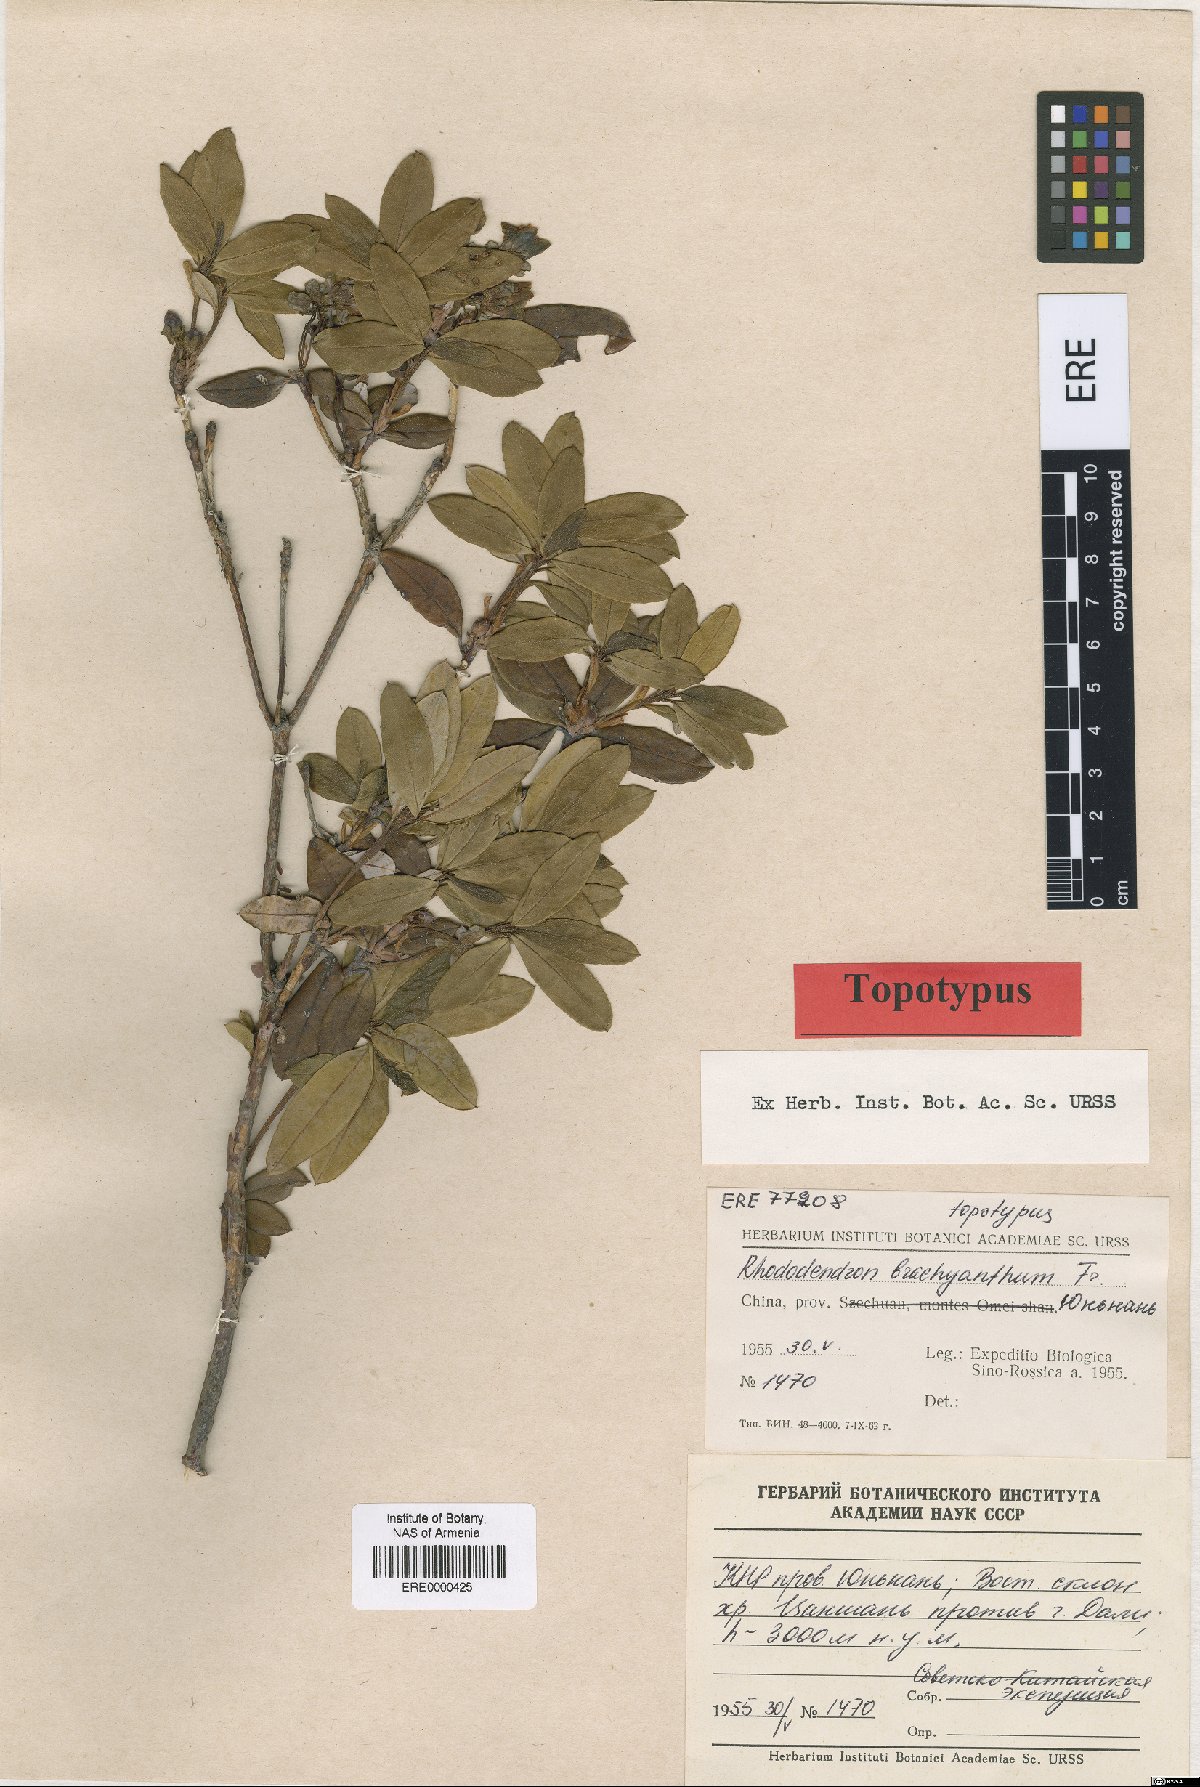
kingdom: Plantae
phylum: Tracheophyta
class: Magnoliopsida
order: Ericales
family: Ericaceae
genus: Rhododendron
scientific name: Rhododendron brachyanthum
